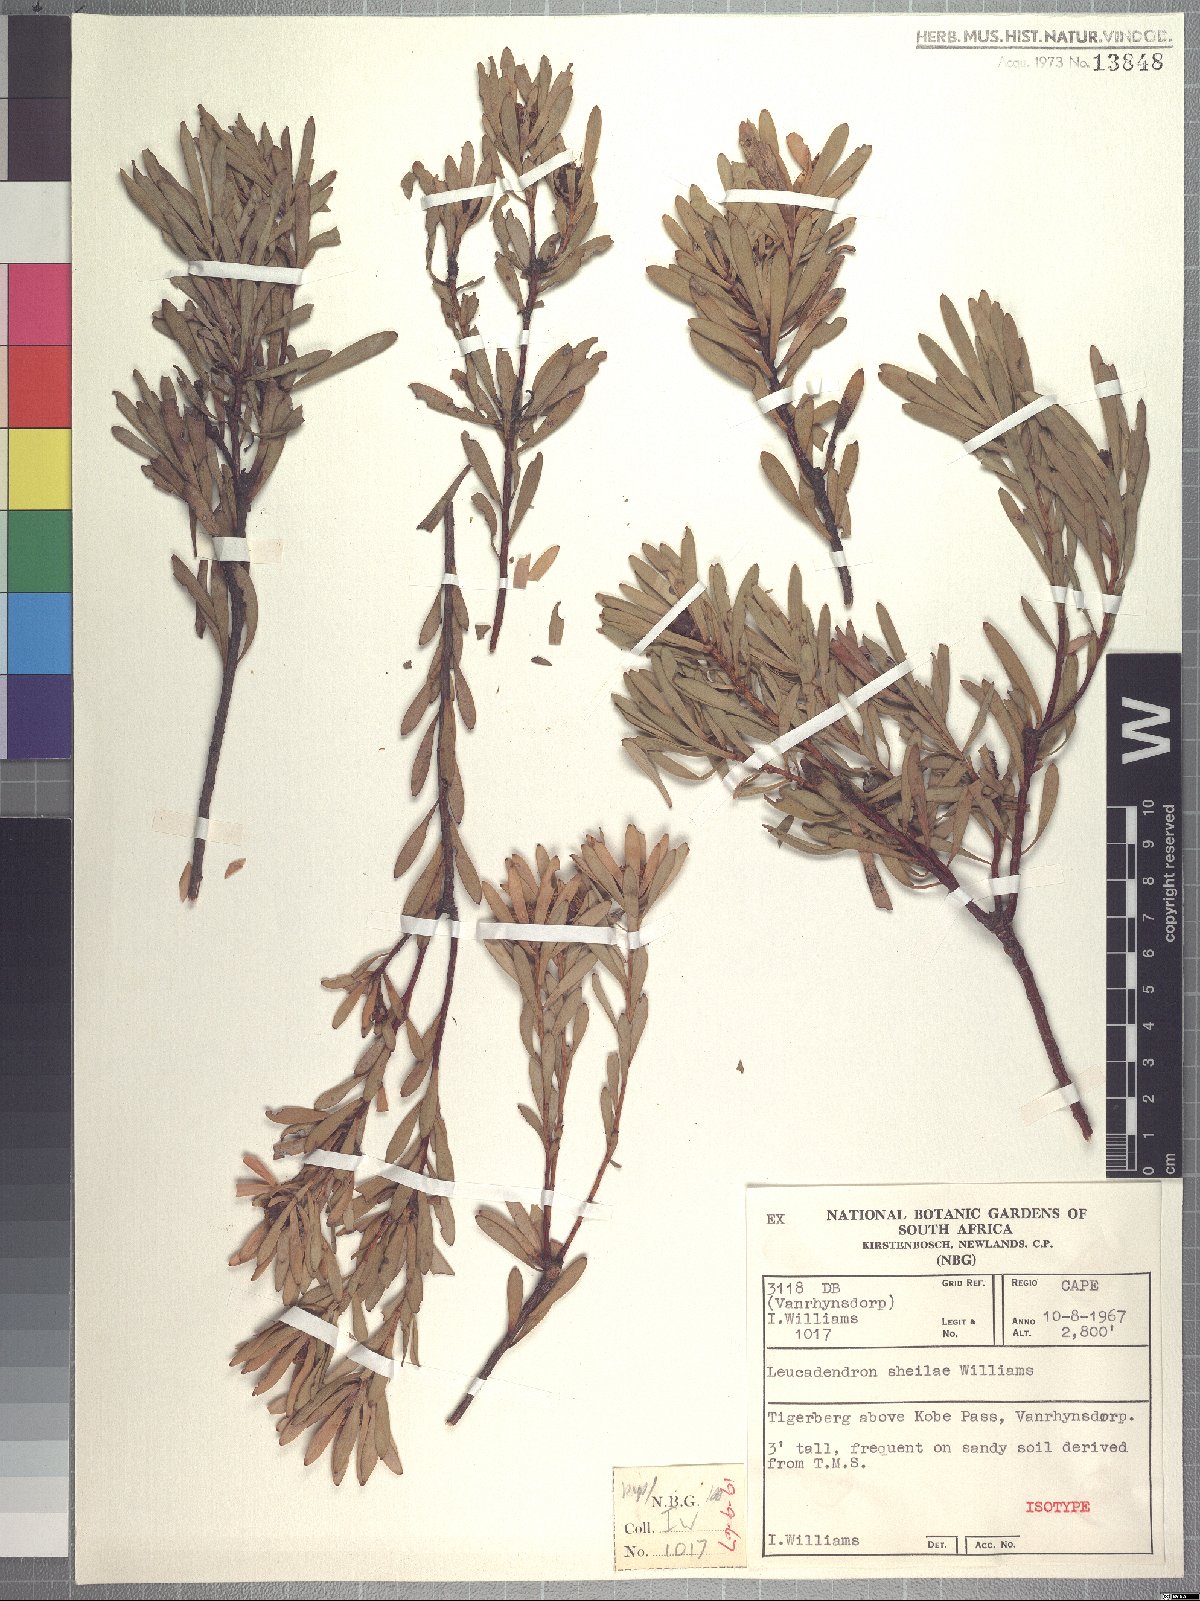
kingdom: Plantae
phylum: Tracheophyta
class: Magnoliopsida
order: Proteales
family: Proteaceae
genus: Leucadendron
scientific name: Leucadendron sheilae
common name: Lokenberg conebush
